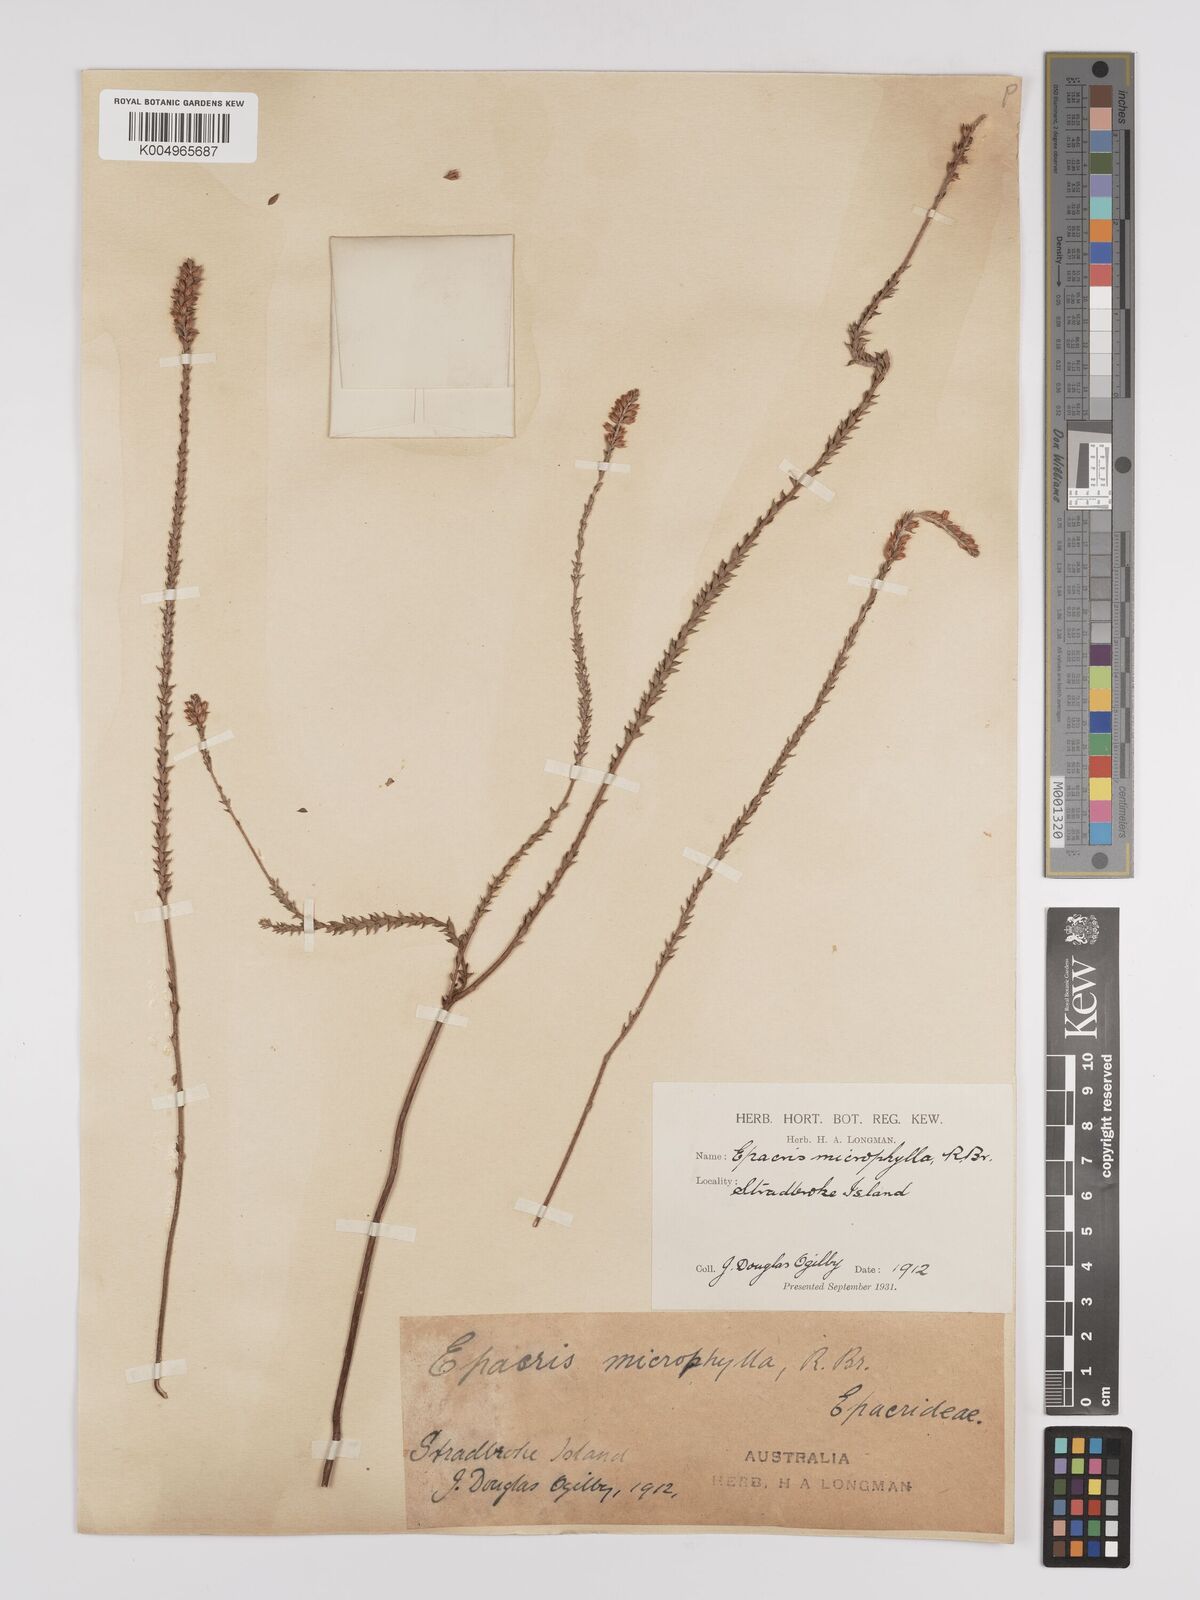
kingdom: Plantae
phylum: Tracheophyta
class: Magnoliopsida
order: Ericales
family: Ericaceae
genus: Epacris
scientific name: Epacris
